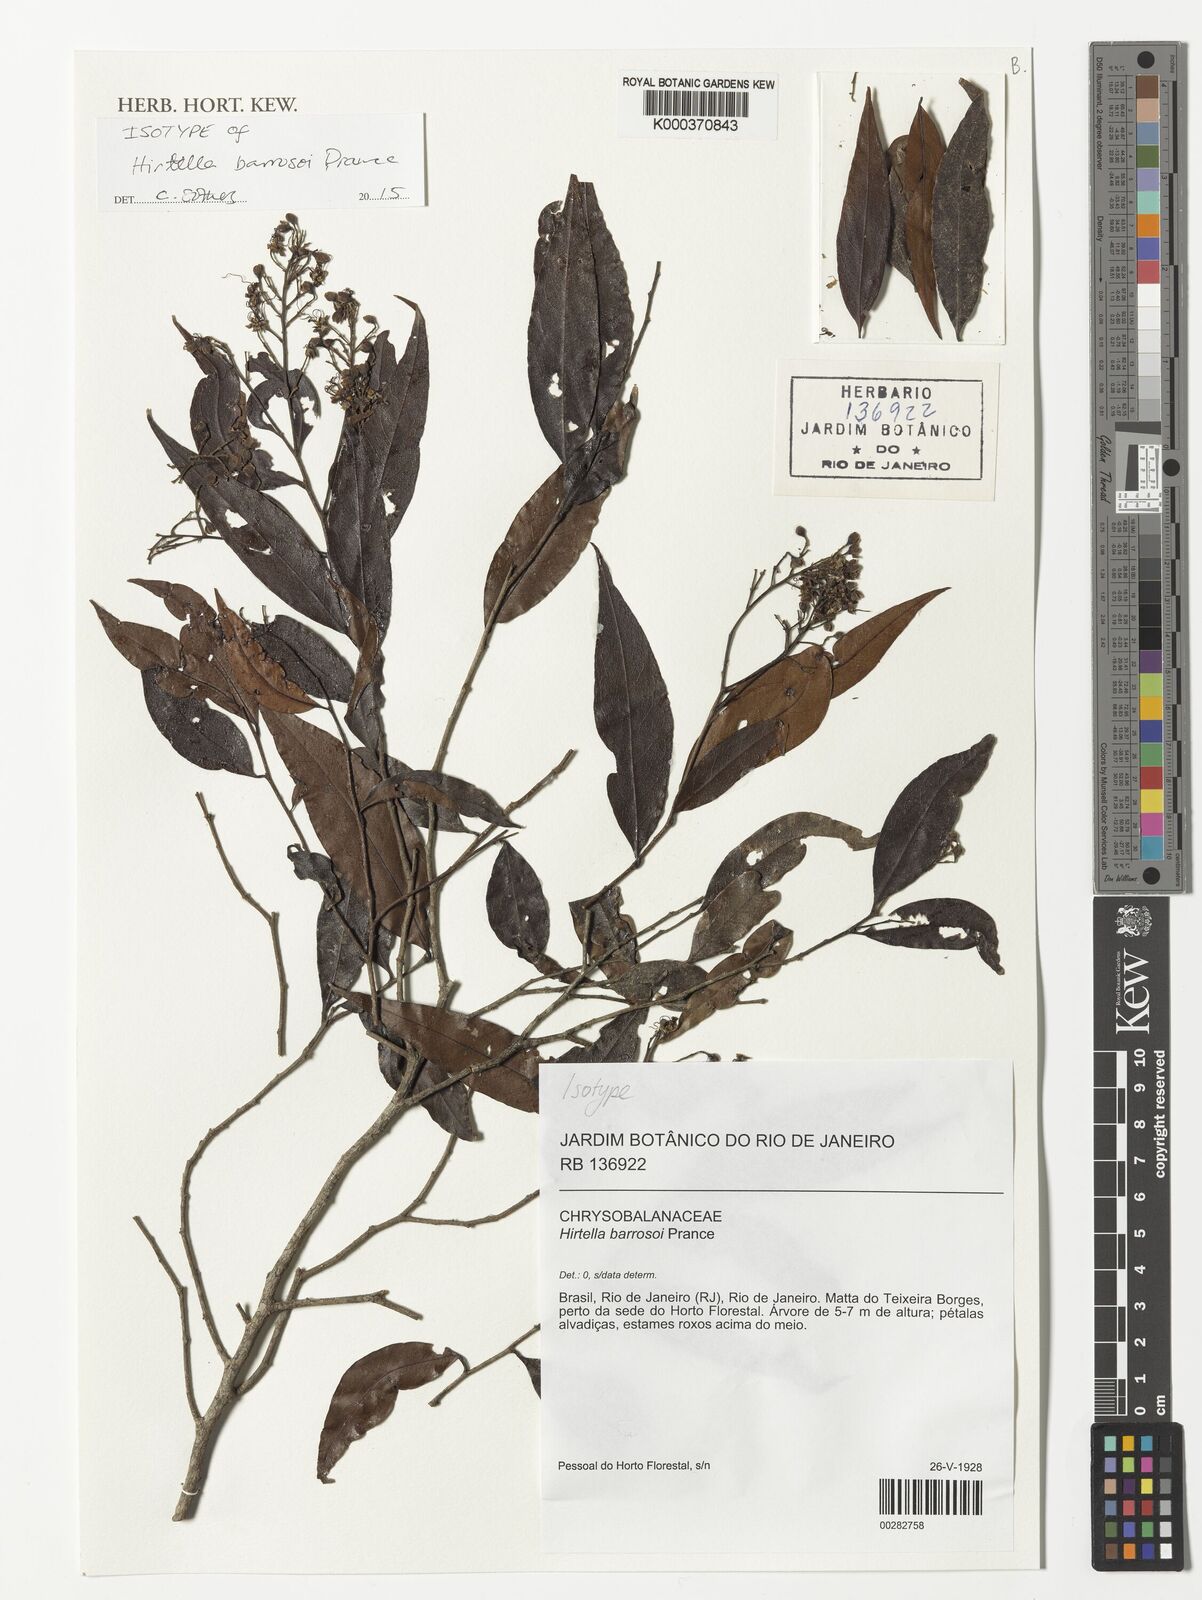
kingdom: Plantae
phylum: Tracheophyta
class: Magnoliopsida
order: Malpighiales
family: Chrysobalanaceae
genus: Hirtella
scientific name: Hirtella barrosoi
